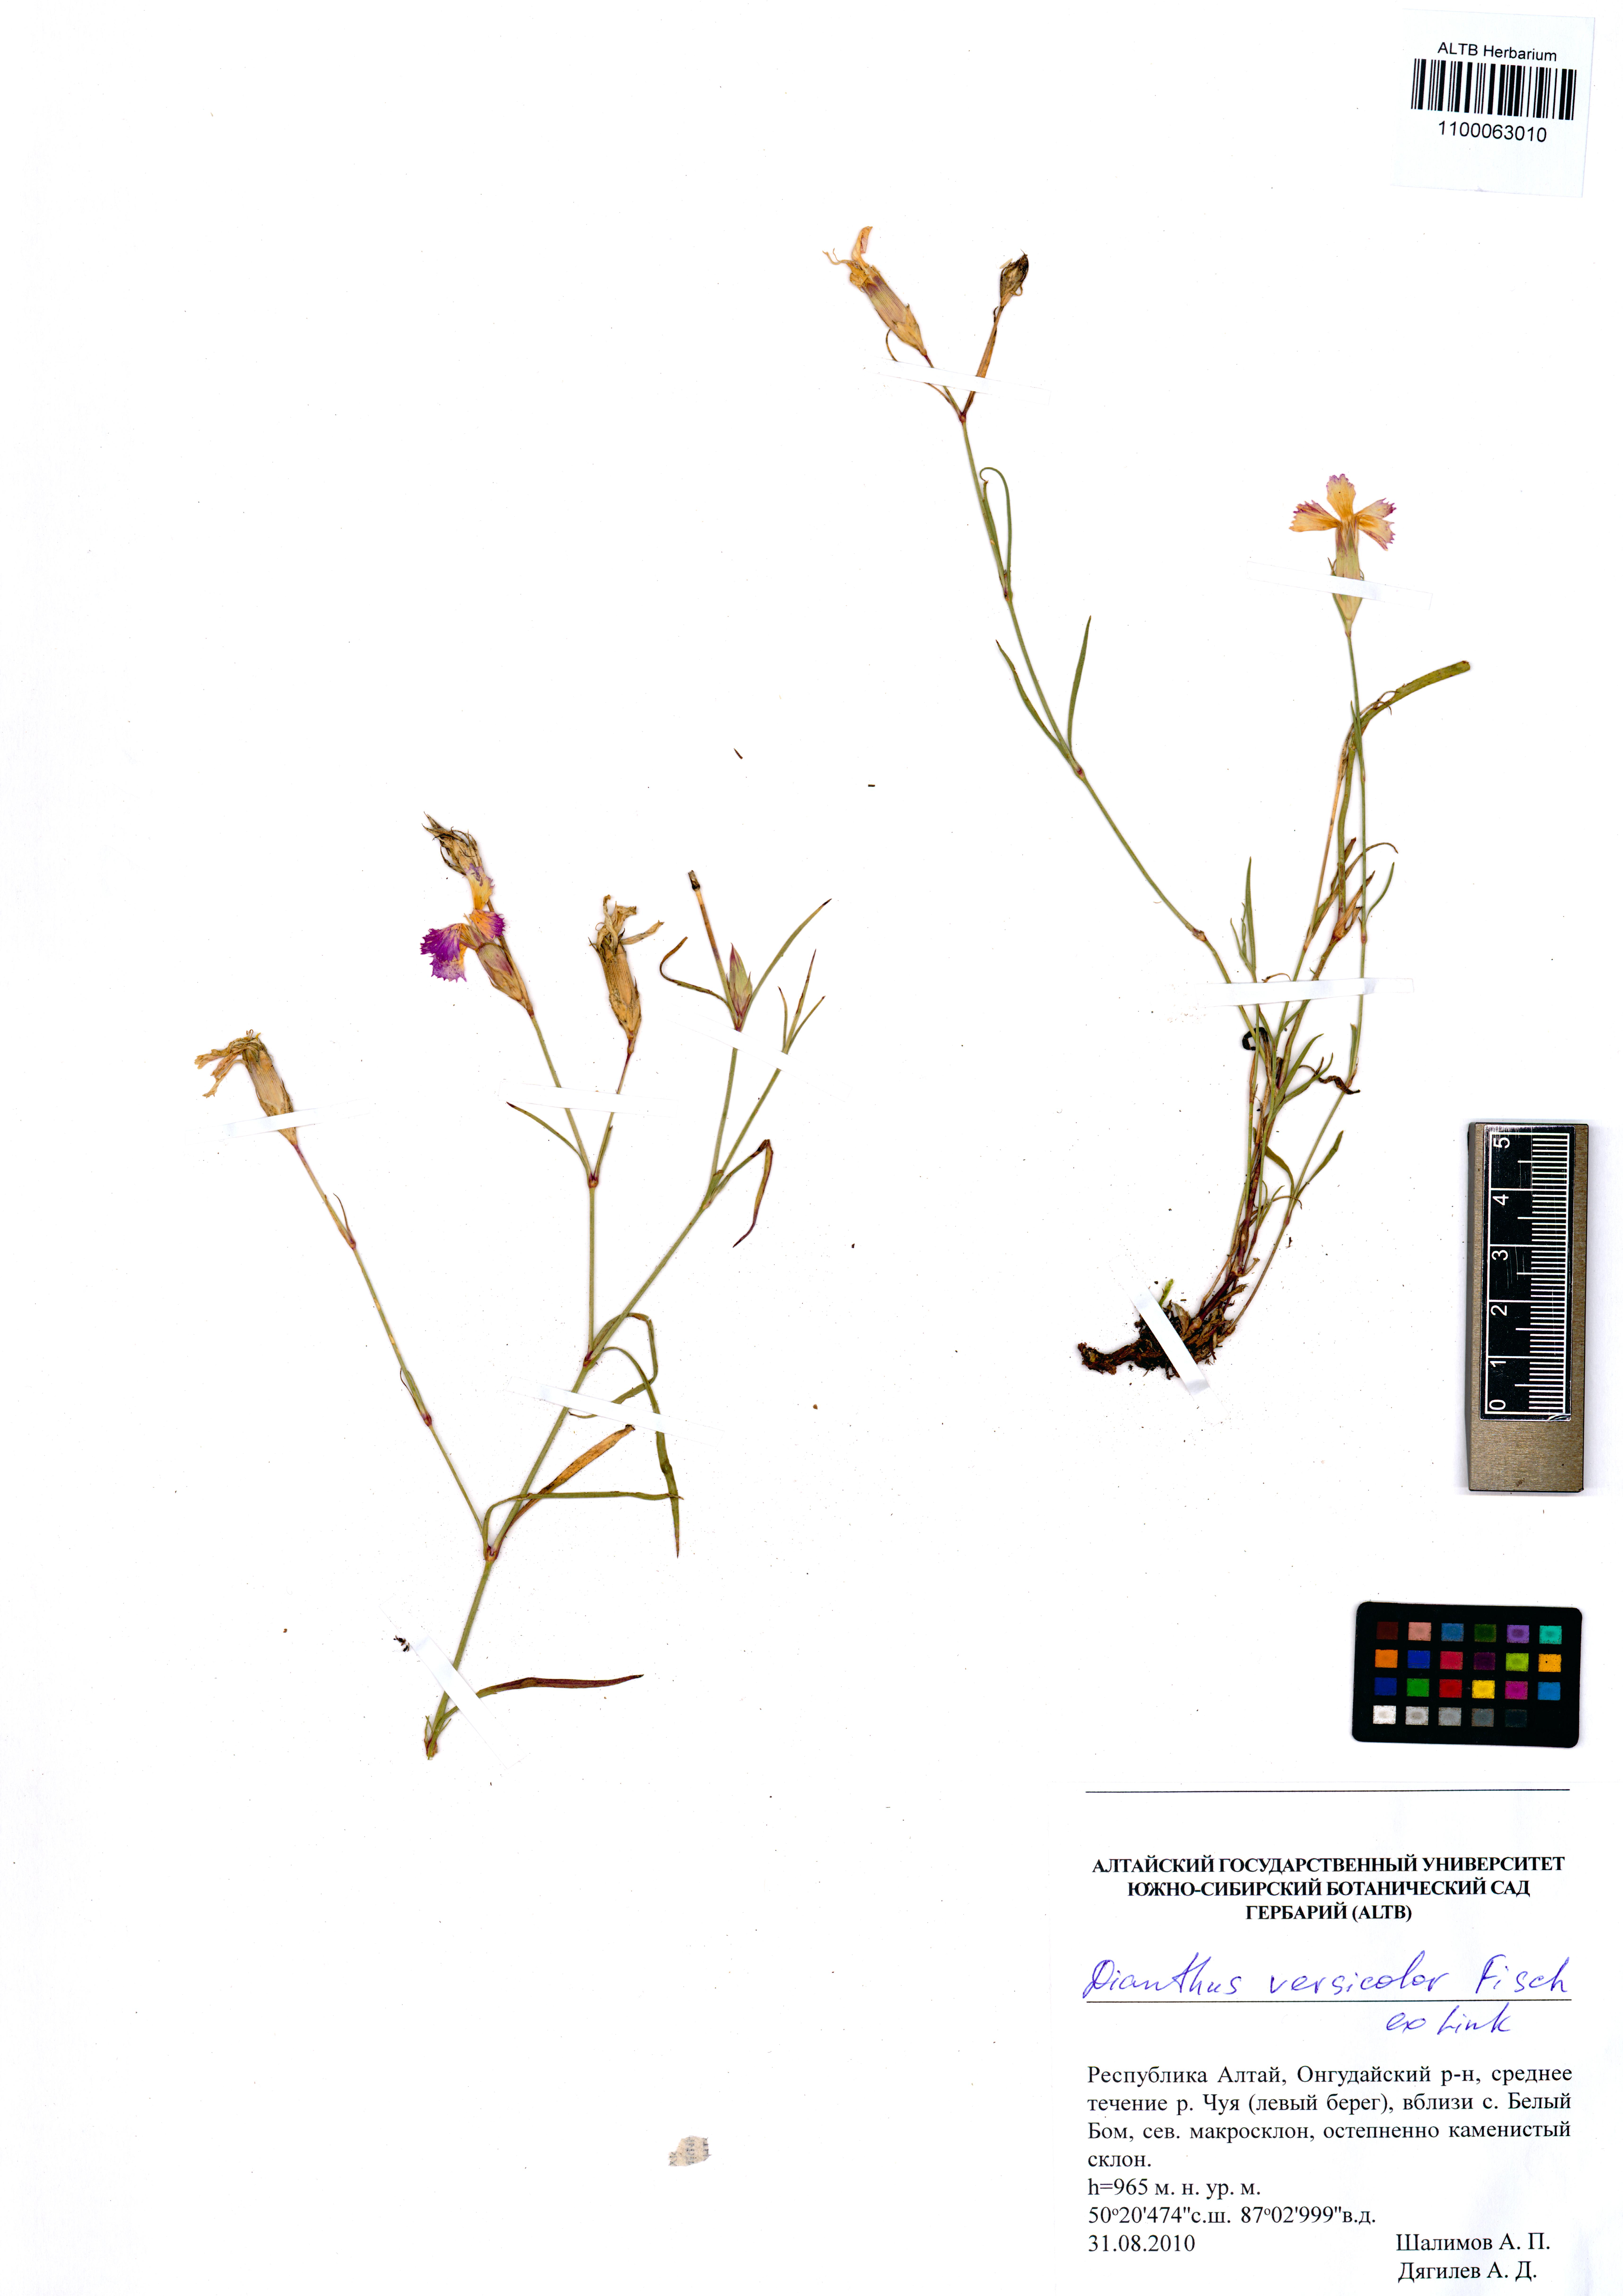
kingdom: Plantae
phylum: Tracheophyta
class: Magnoliopsida
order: Caryophyllales
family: Caryophyllaceae
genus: Dianthus
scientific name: Dianthus chinensis
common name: Rainbow pink
